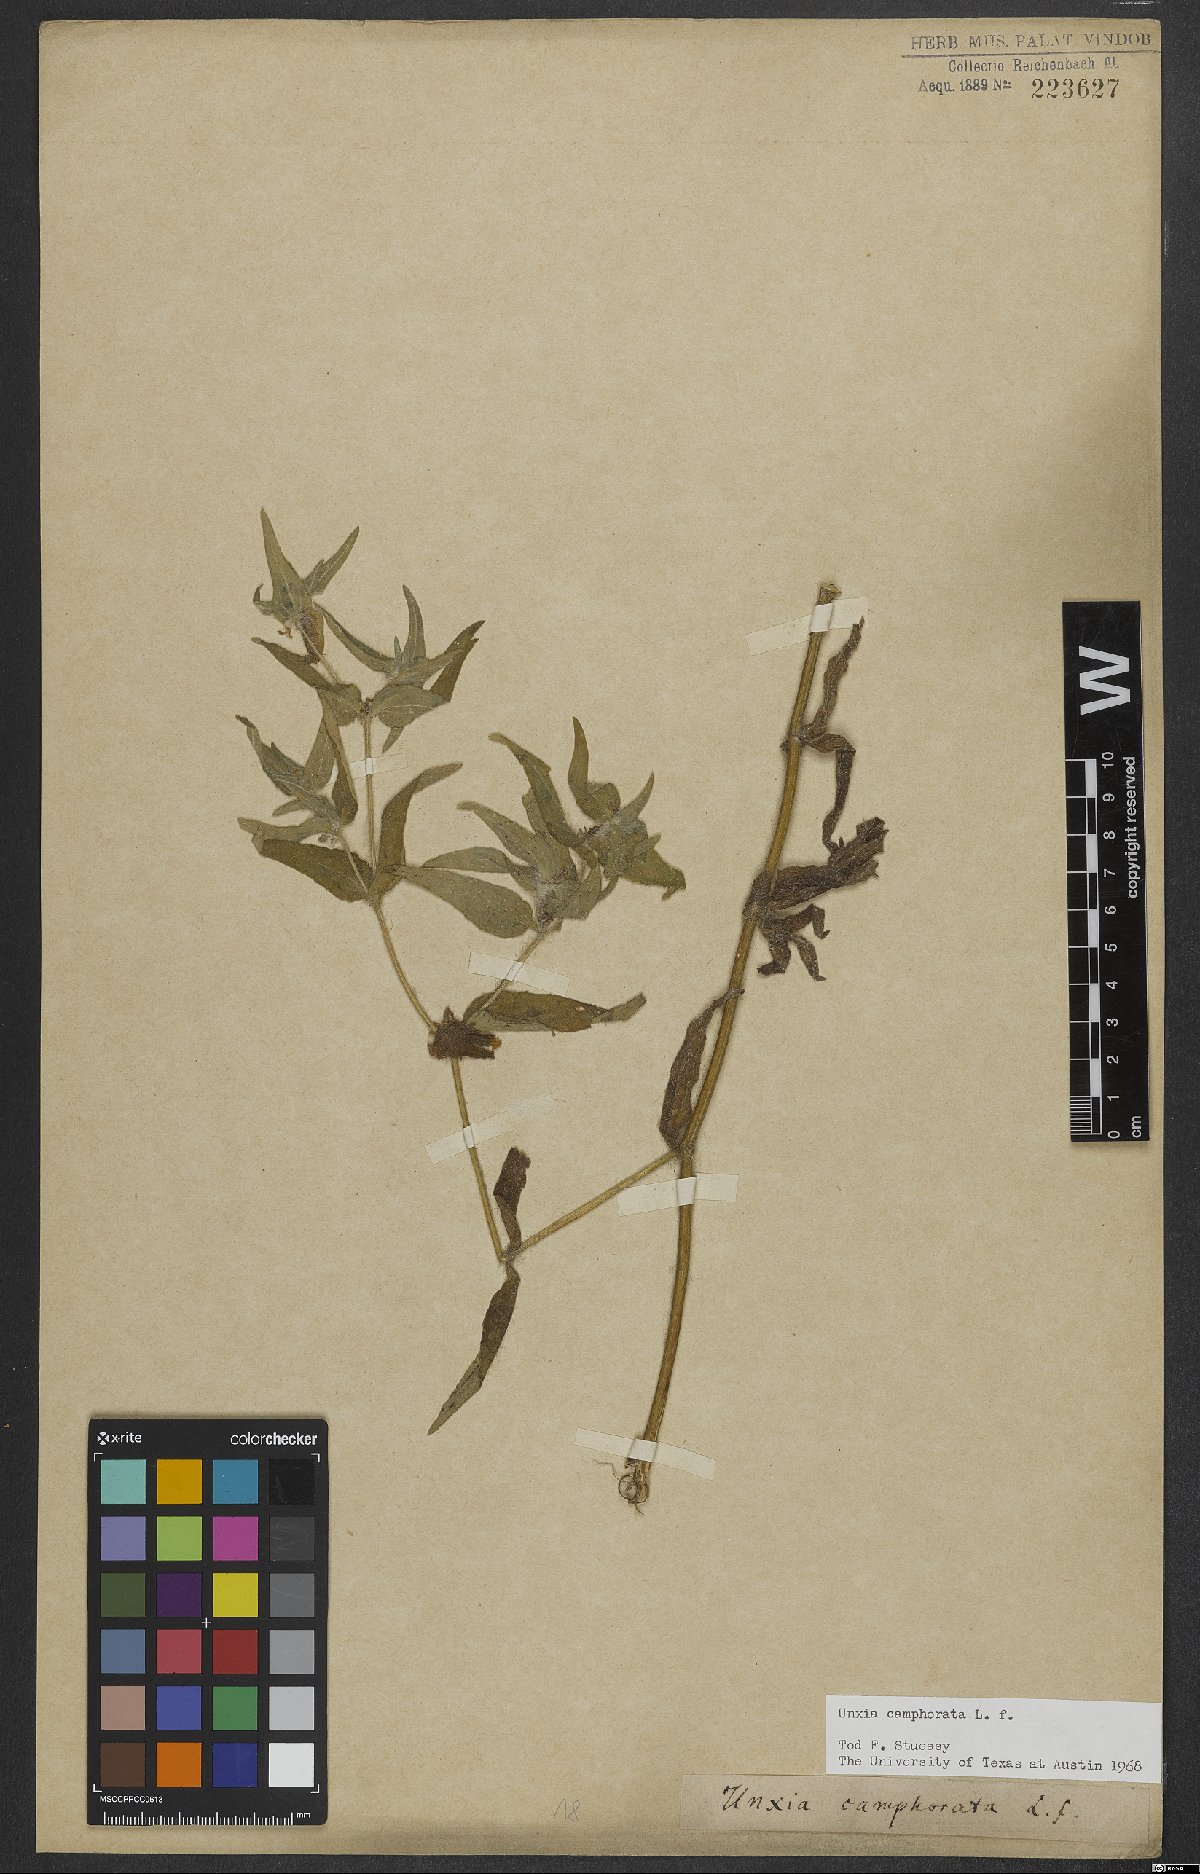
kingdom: Plantae
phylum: Tracheophyta
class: Magnoliopsida
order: Asterales
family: Asteraceae
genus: Unxia
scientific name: Unxia camphorata
